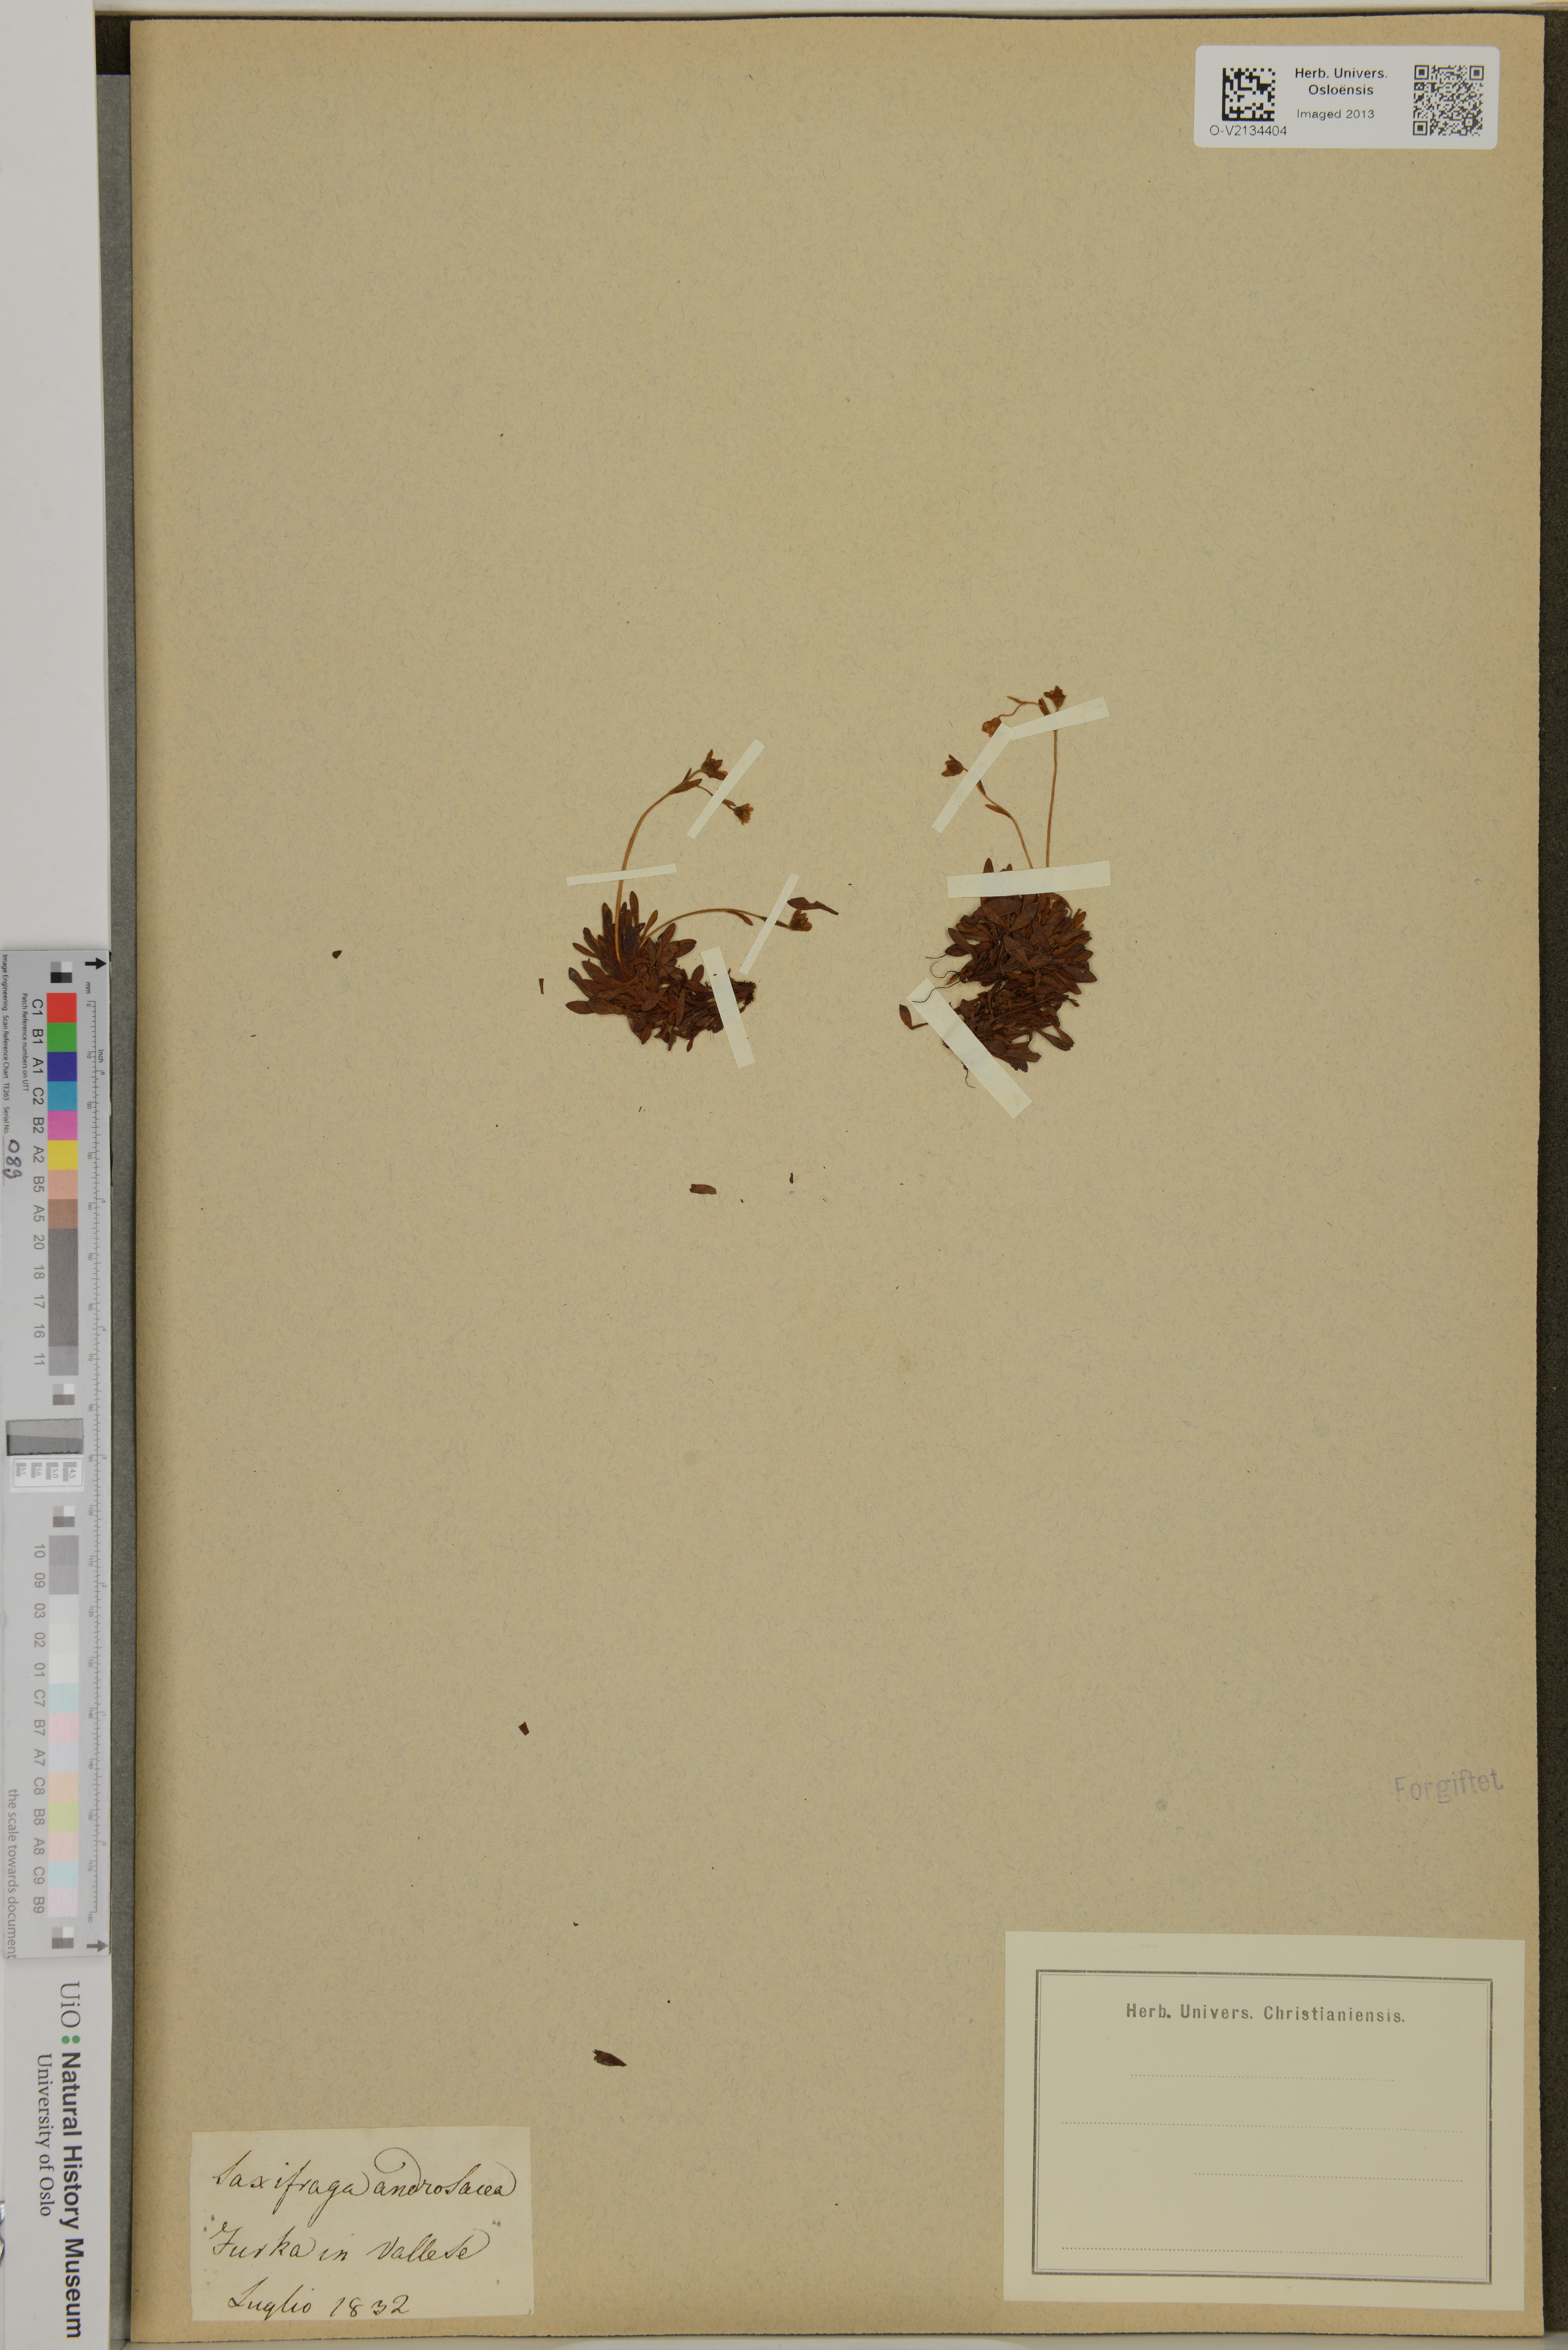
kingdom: Plantae
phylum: Tracheophyta
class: Magnoliopsida
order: Saxifragales
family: Saxifragaceae
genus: Saxifraga
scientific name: Saxifraga androsacea
